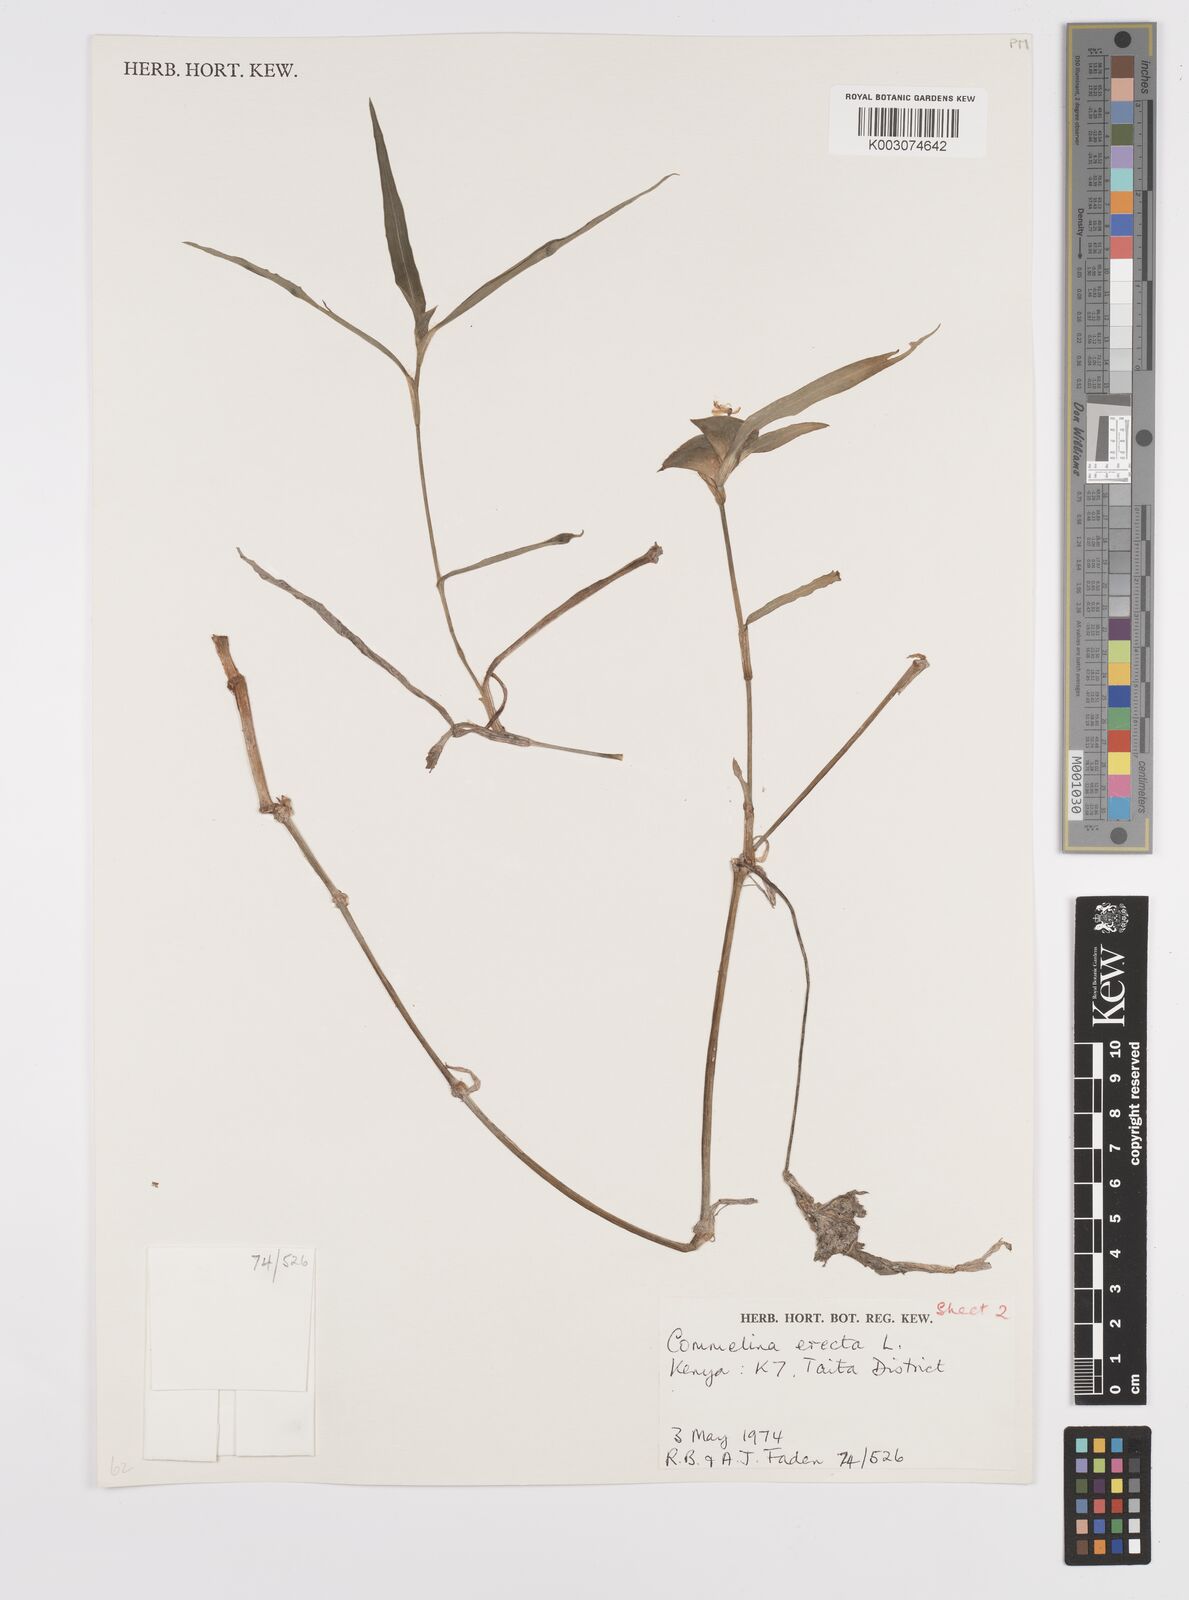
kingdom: Plantae
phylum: Tracheophyta
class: Liliopsida
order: Commelinales
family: Commelinaceae
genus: Commelina
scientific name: Commelina erecta
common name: Blousel blommetjie
